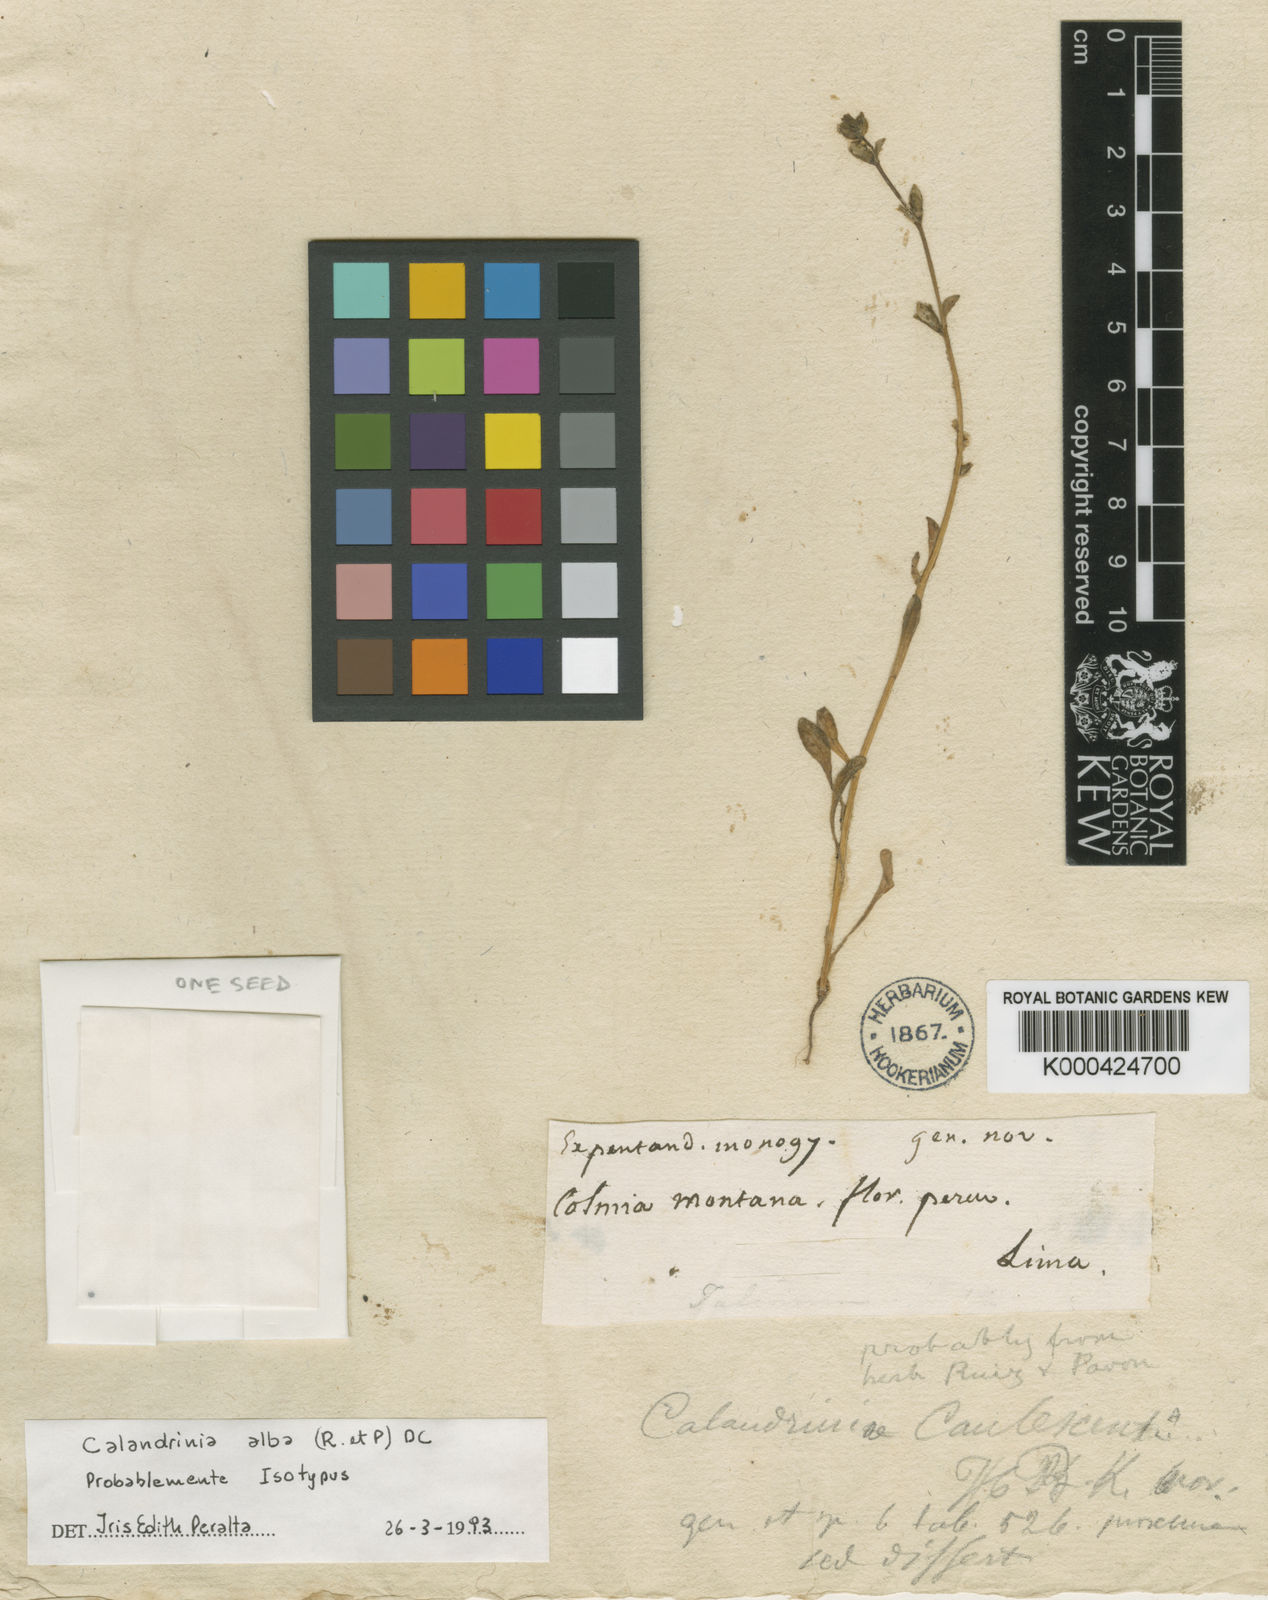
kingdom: Plantae
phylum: Tracheophyta
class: Magnoliopsida
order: Caryophyllales
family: Montiaceae
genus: Calandrinia
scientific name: Calandrinia alba
